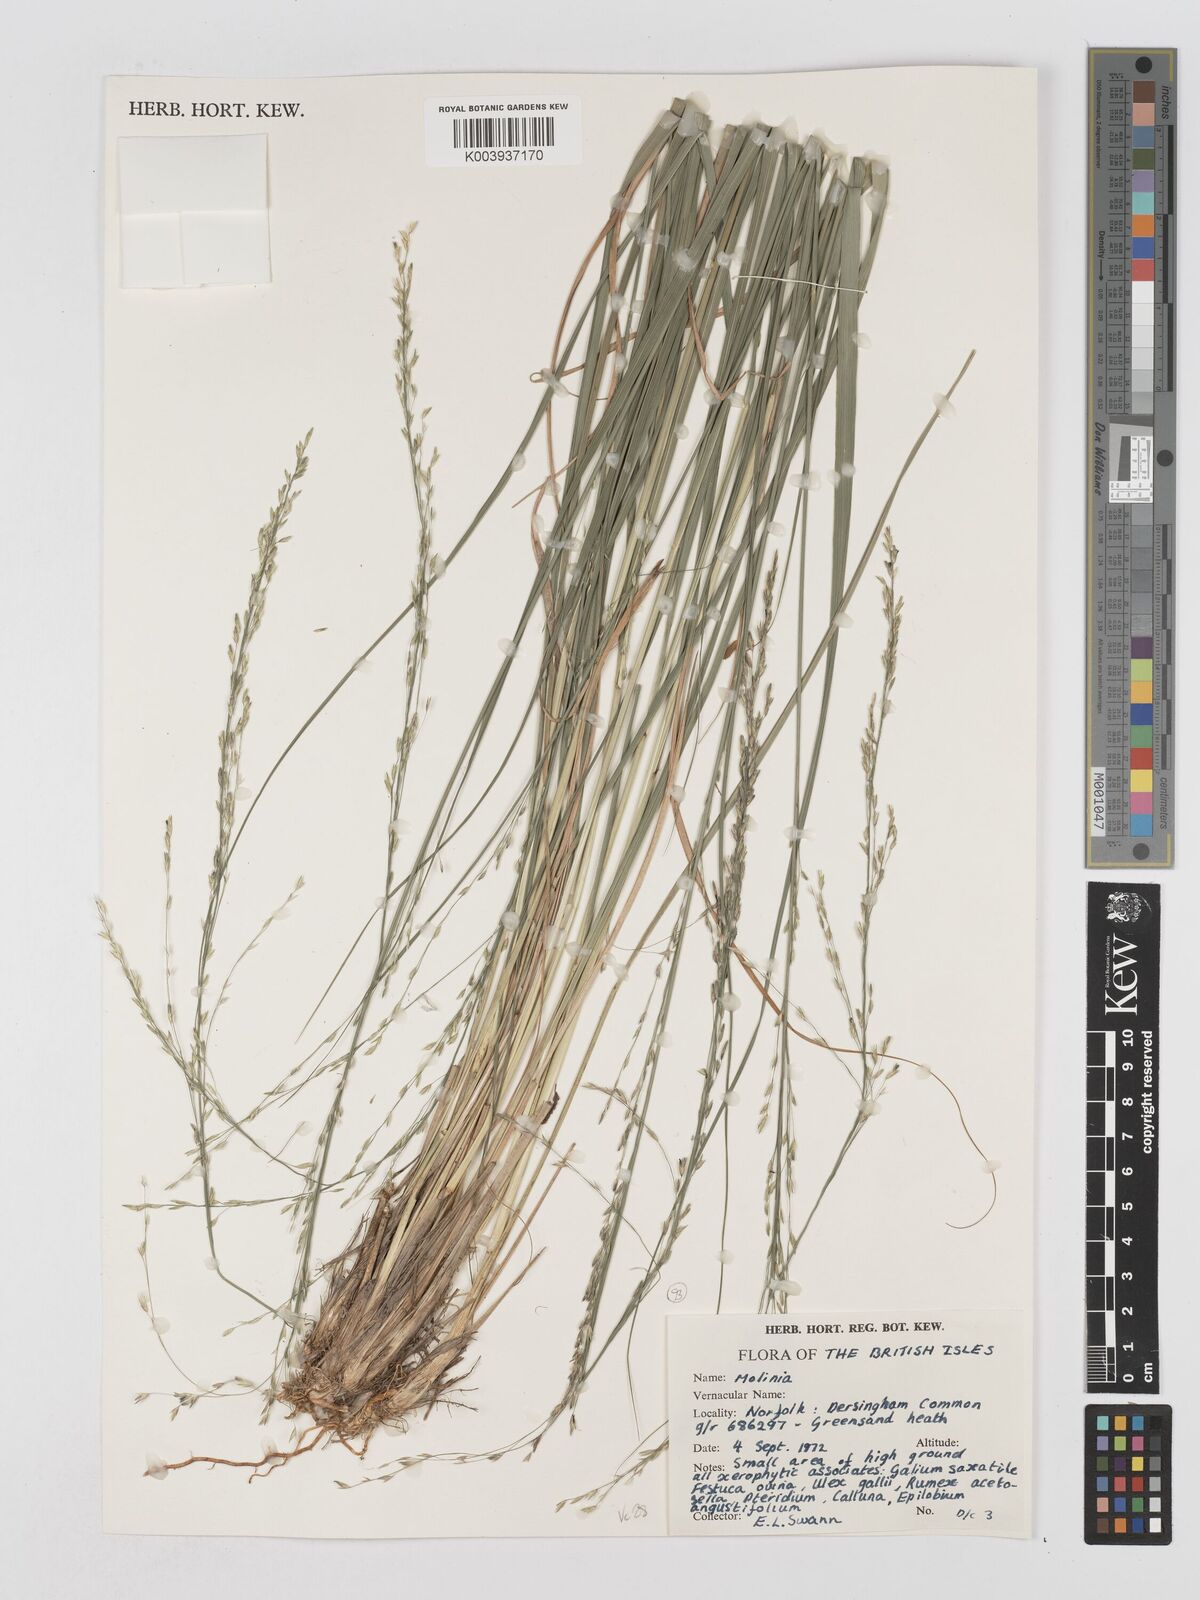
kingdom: Plantae
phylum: Tracheophyta
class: Liliopsida
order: Poales
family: Poaceae
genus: Molinia
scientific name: Molinia caerulea
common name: Purple moor-grass
